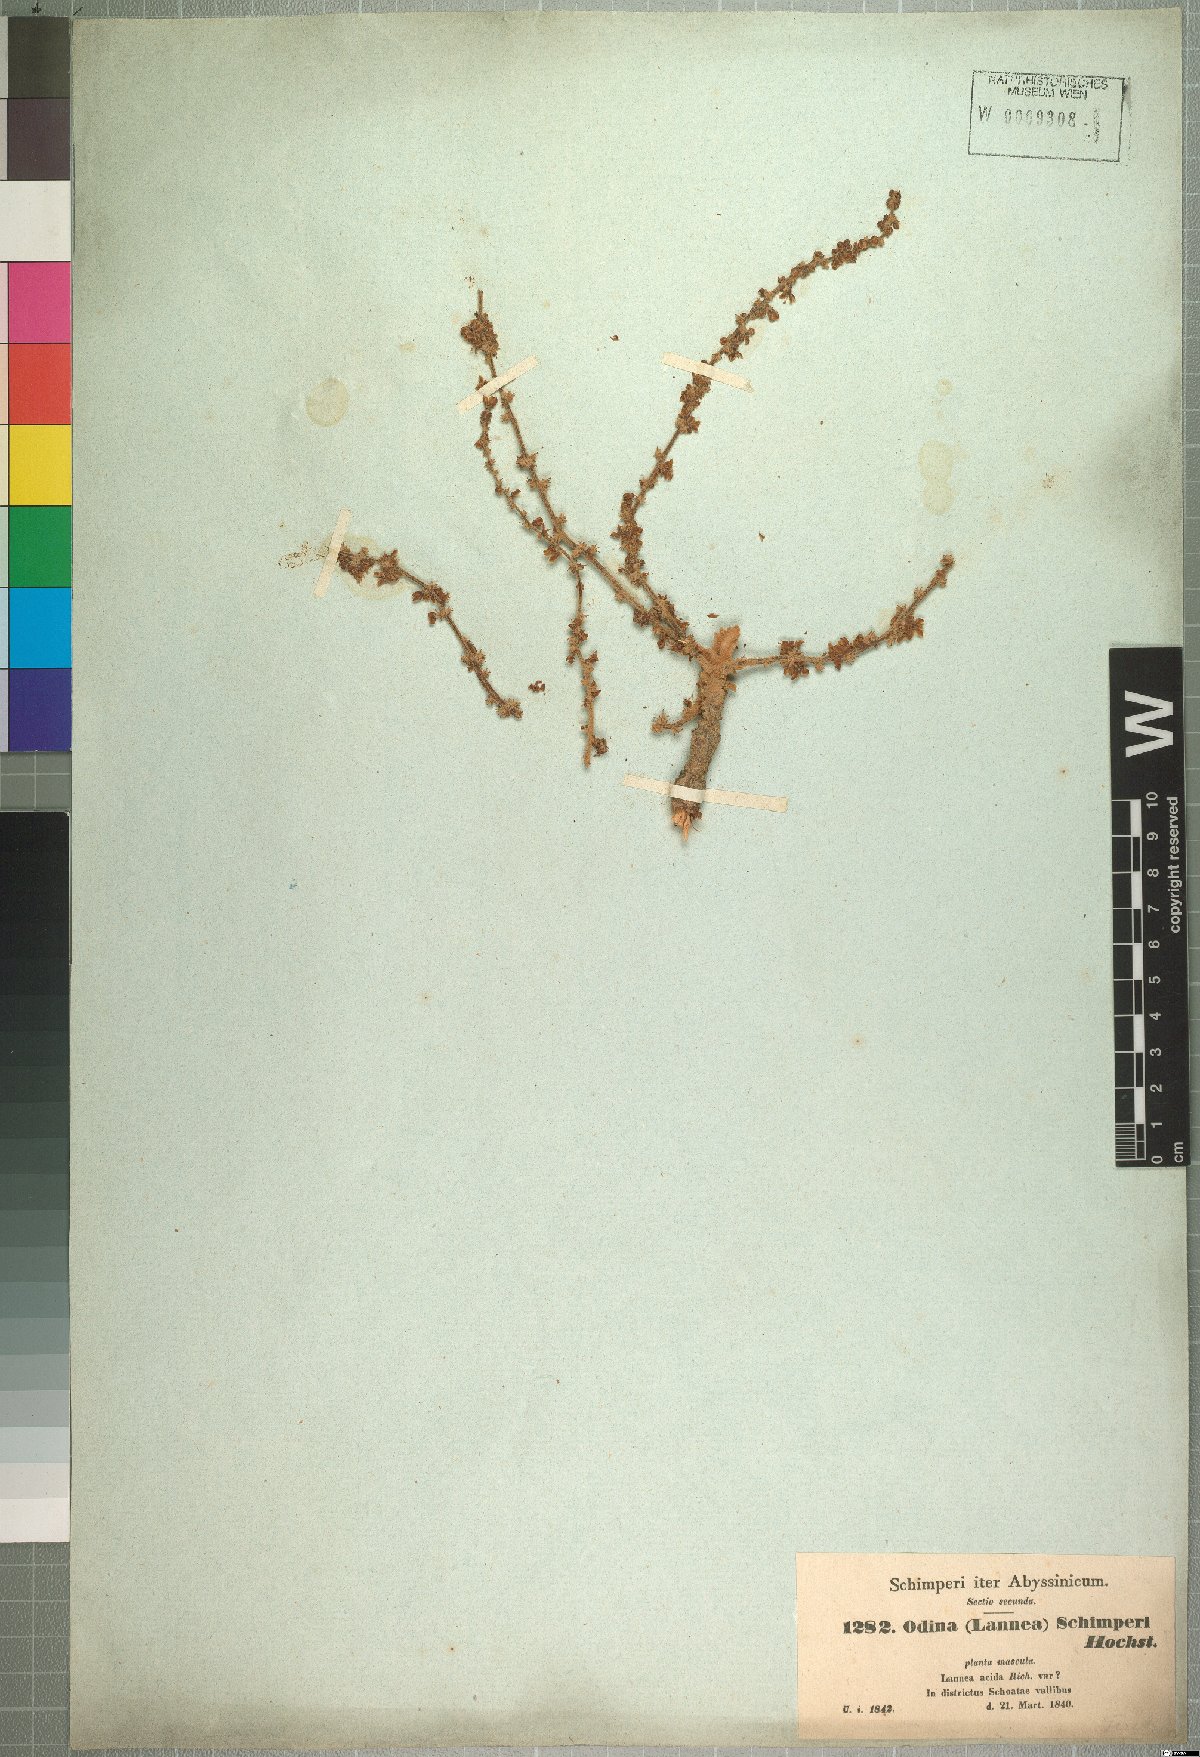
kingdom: Plantae
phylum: Tracheophyta
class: Magnoliopsida
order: Sapindales
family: Anacardiaceae
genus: Lannea
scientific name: Lannea schimperi
